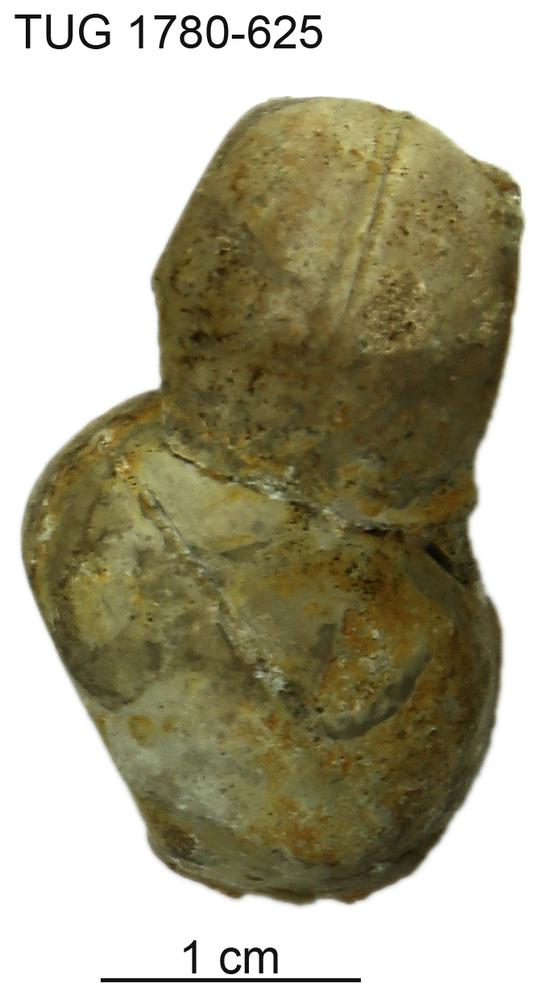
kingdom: Animalia
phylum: Mollusca
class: Gastropoda
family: Bucaniidae
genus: Salpingostoma
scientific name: Salpingostoma locator
